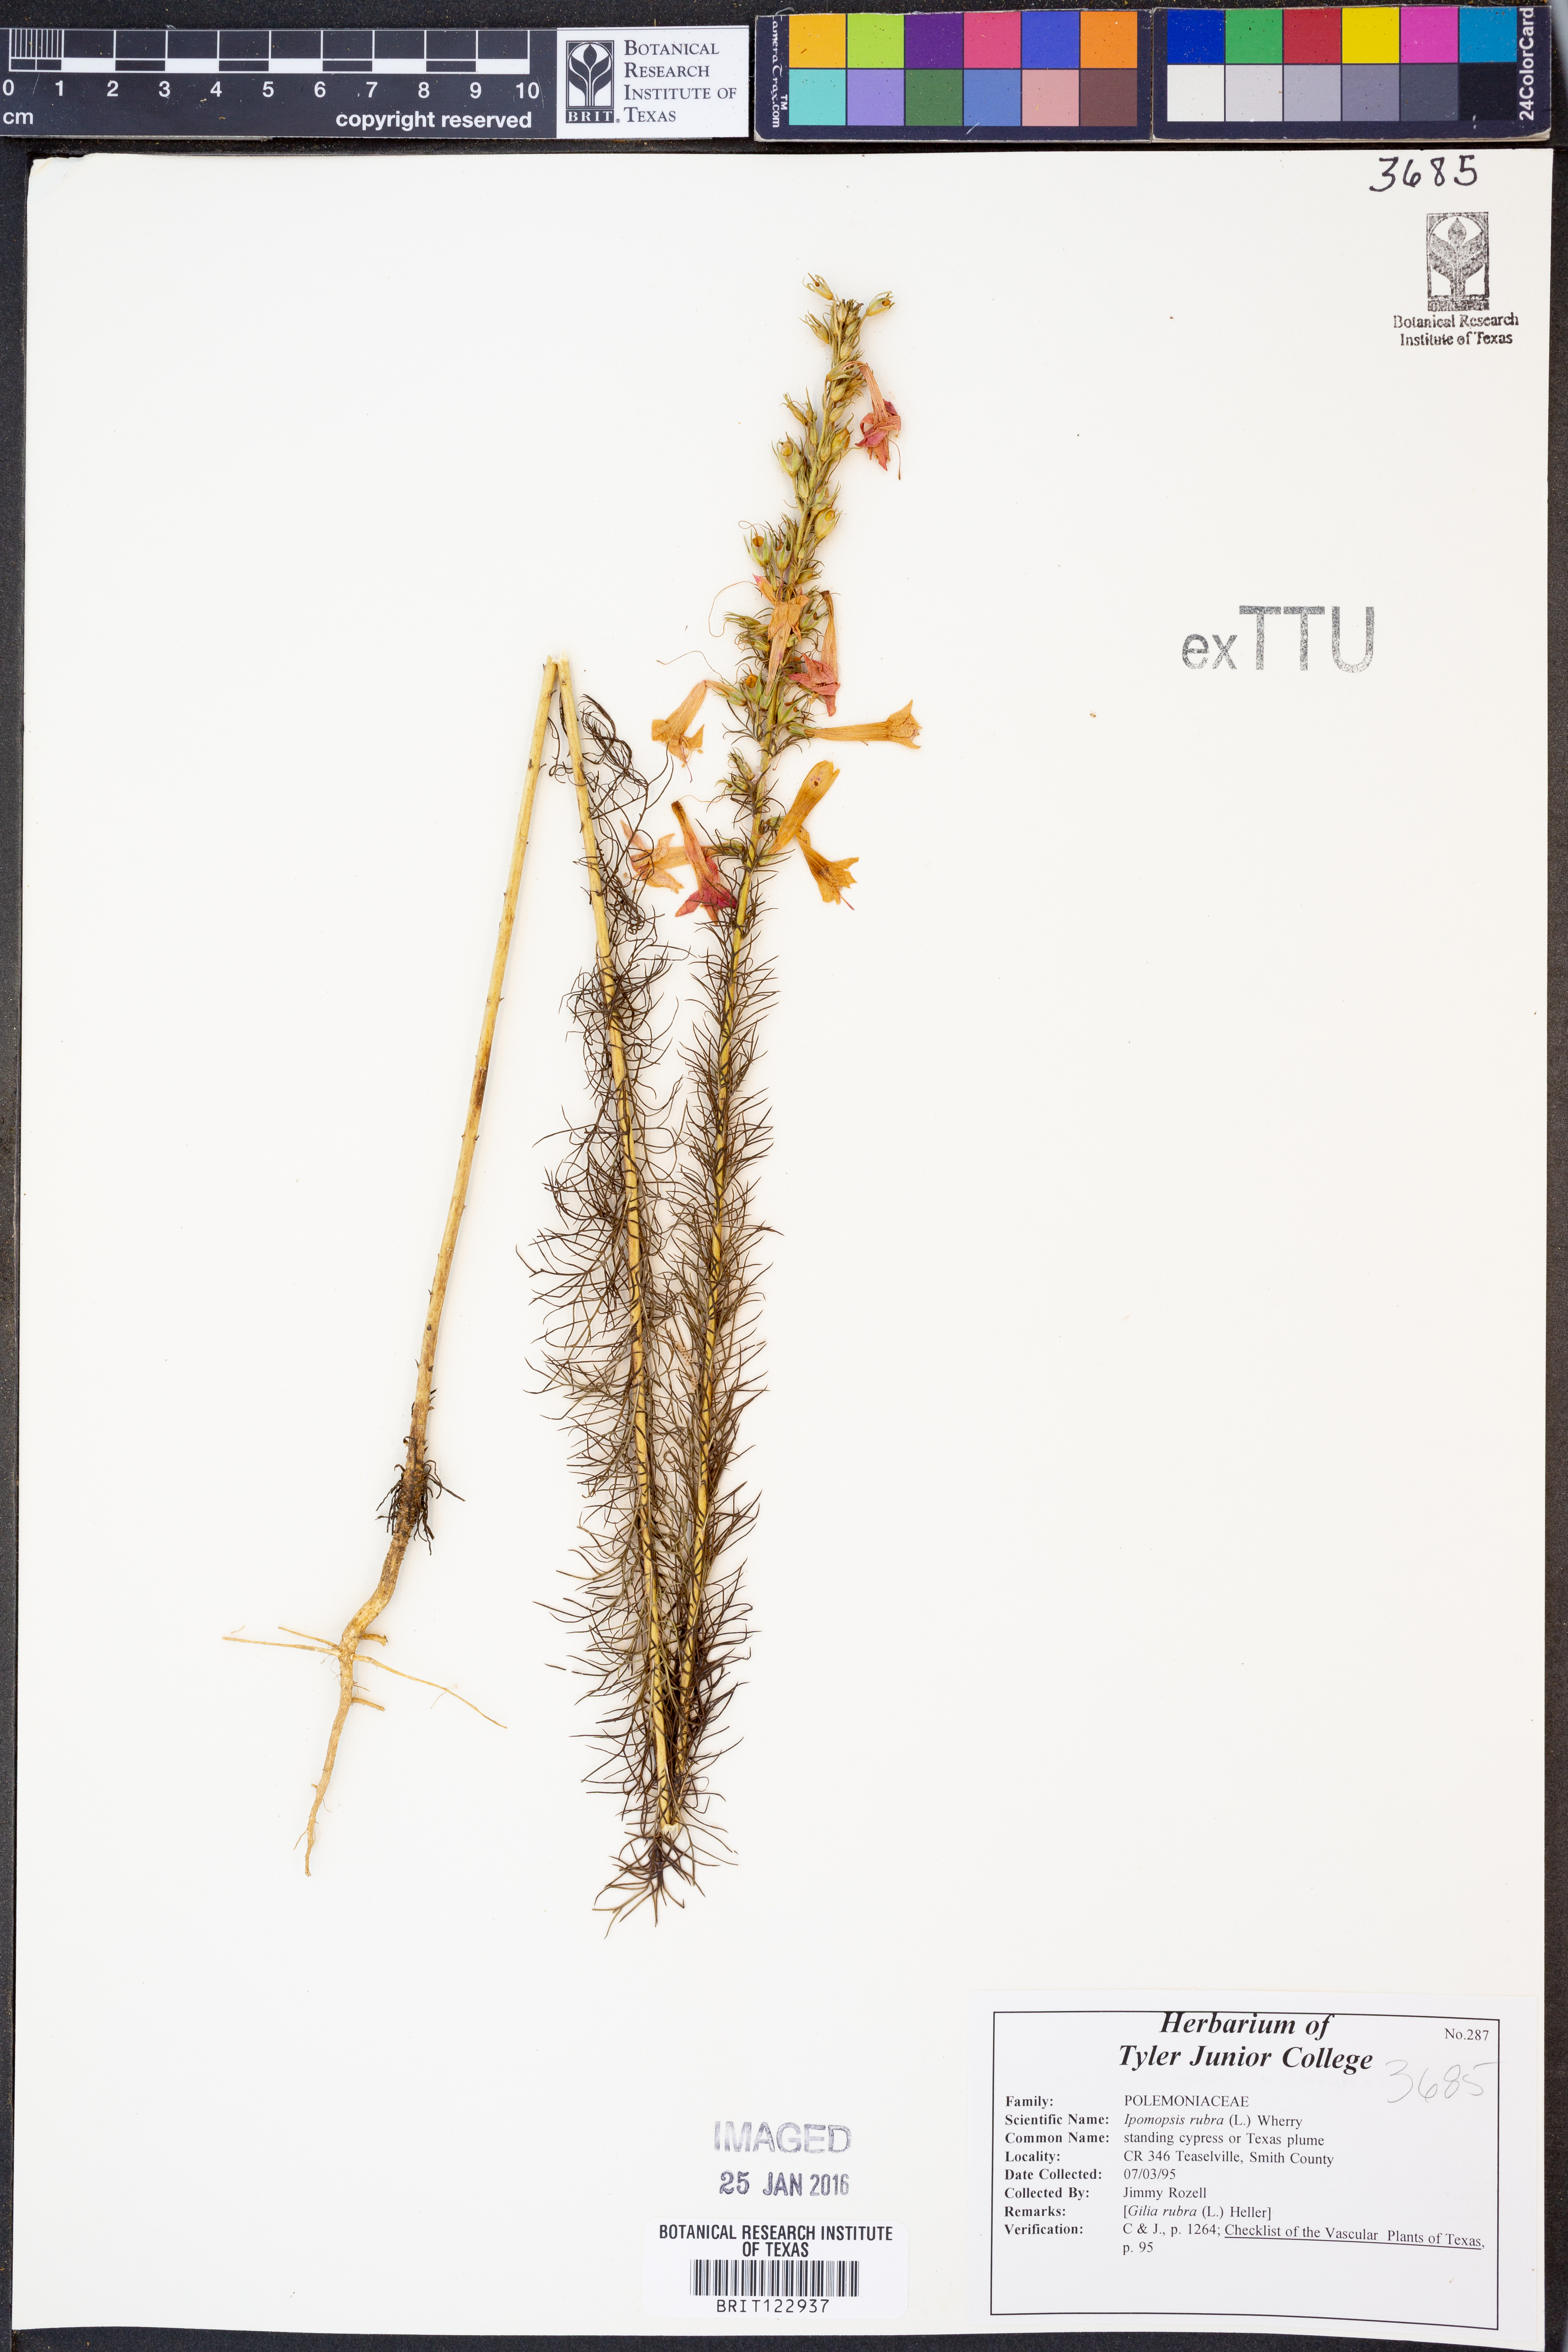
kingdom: Plantae
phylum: Tracheophyta
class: Magnoliopsida
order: Ericales
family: Polemoniaceae
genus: Ipomopsis
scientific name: Ipomopsis rubra
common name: Skyrocket
